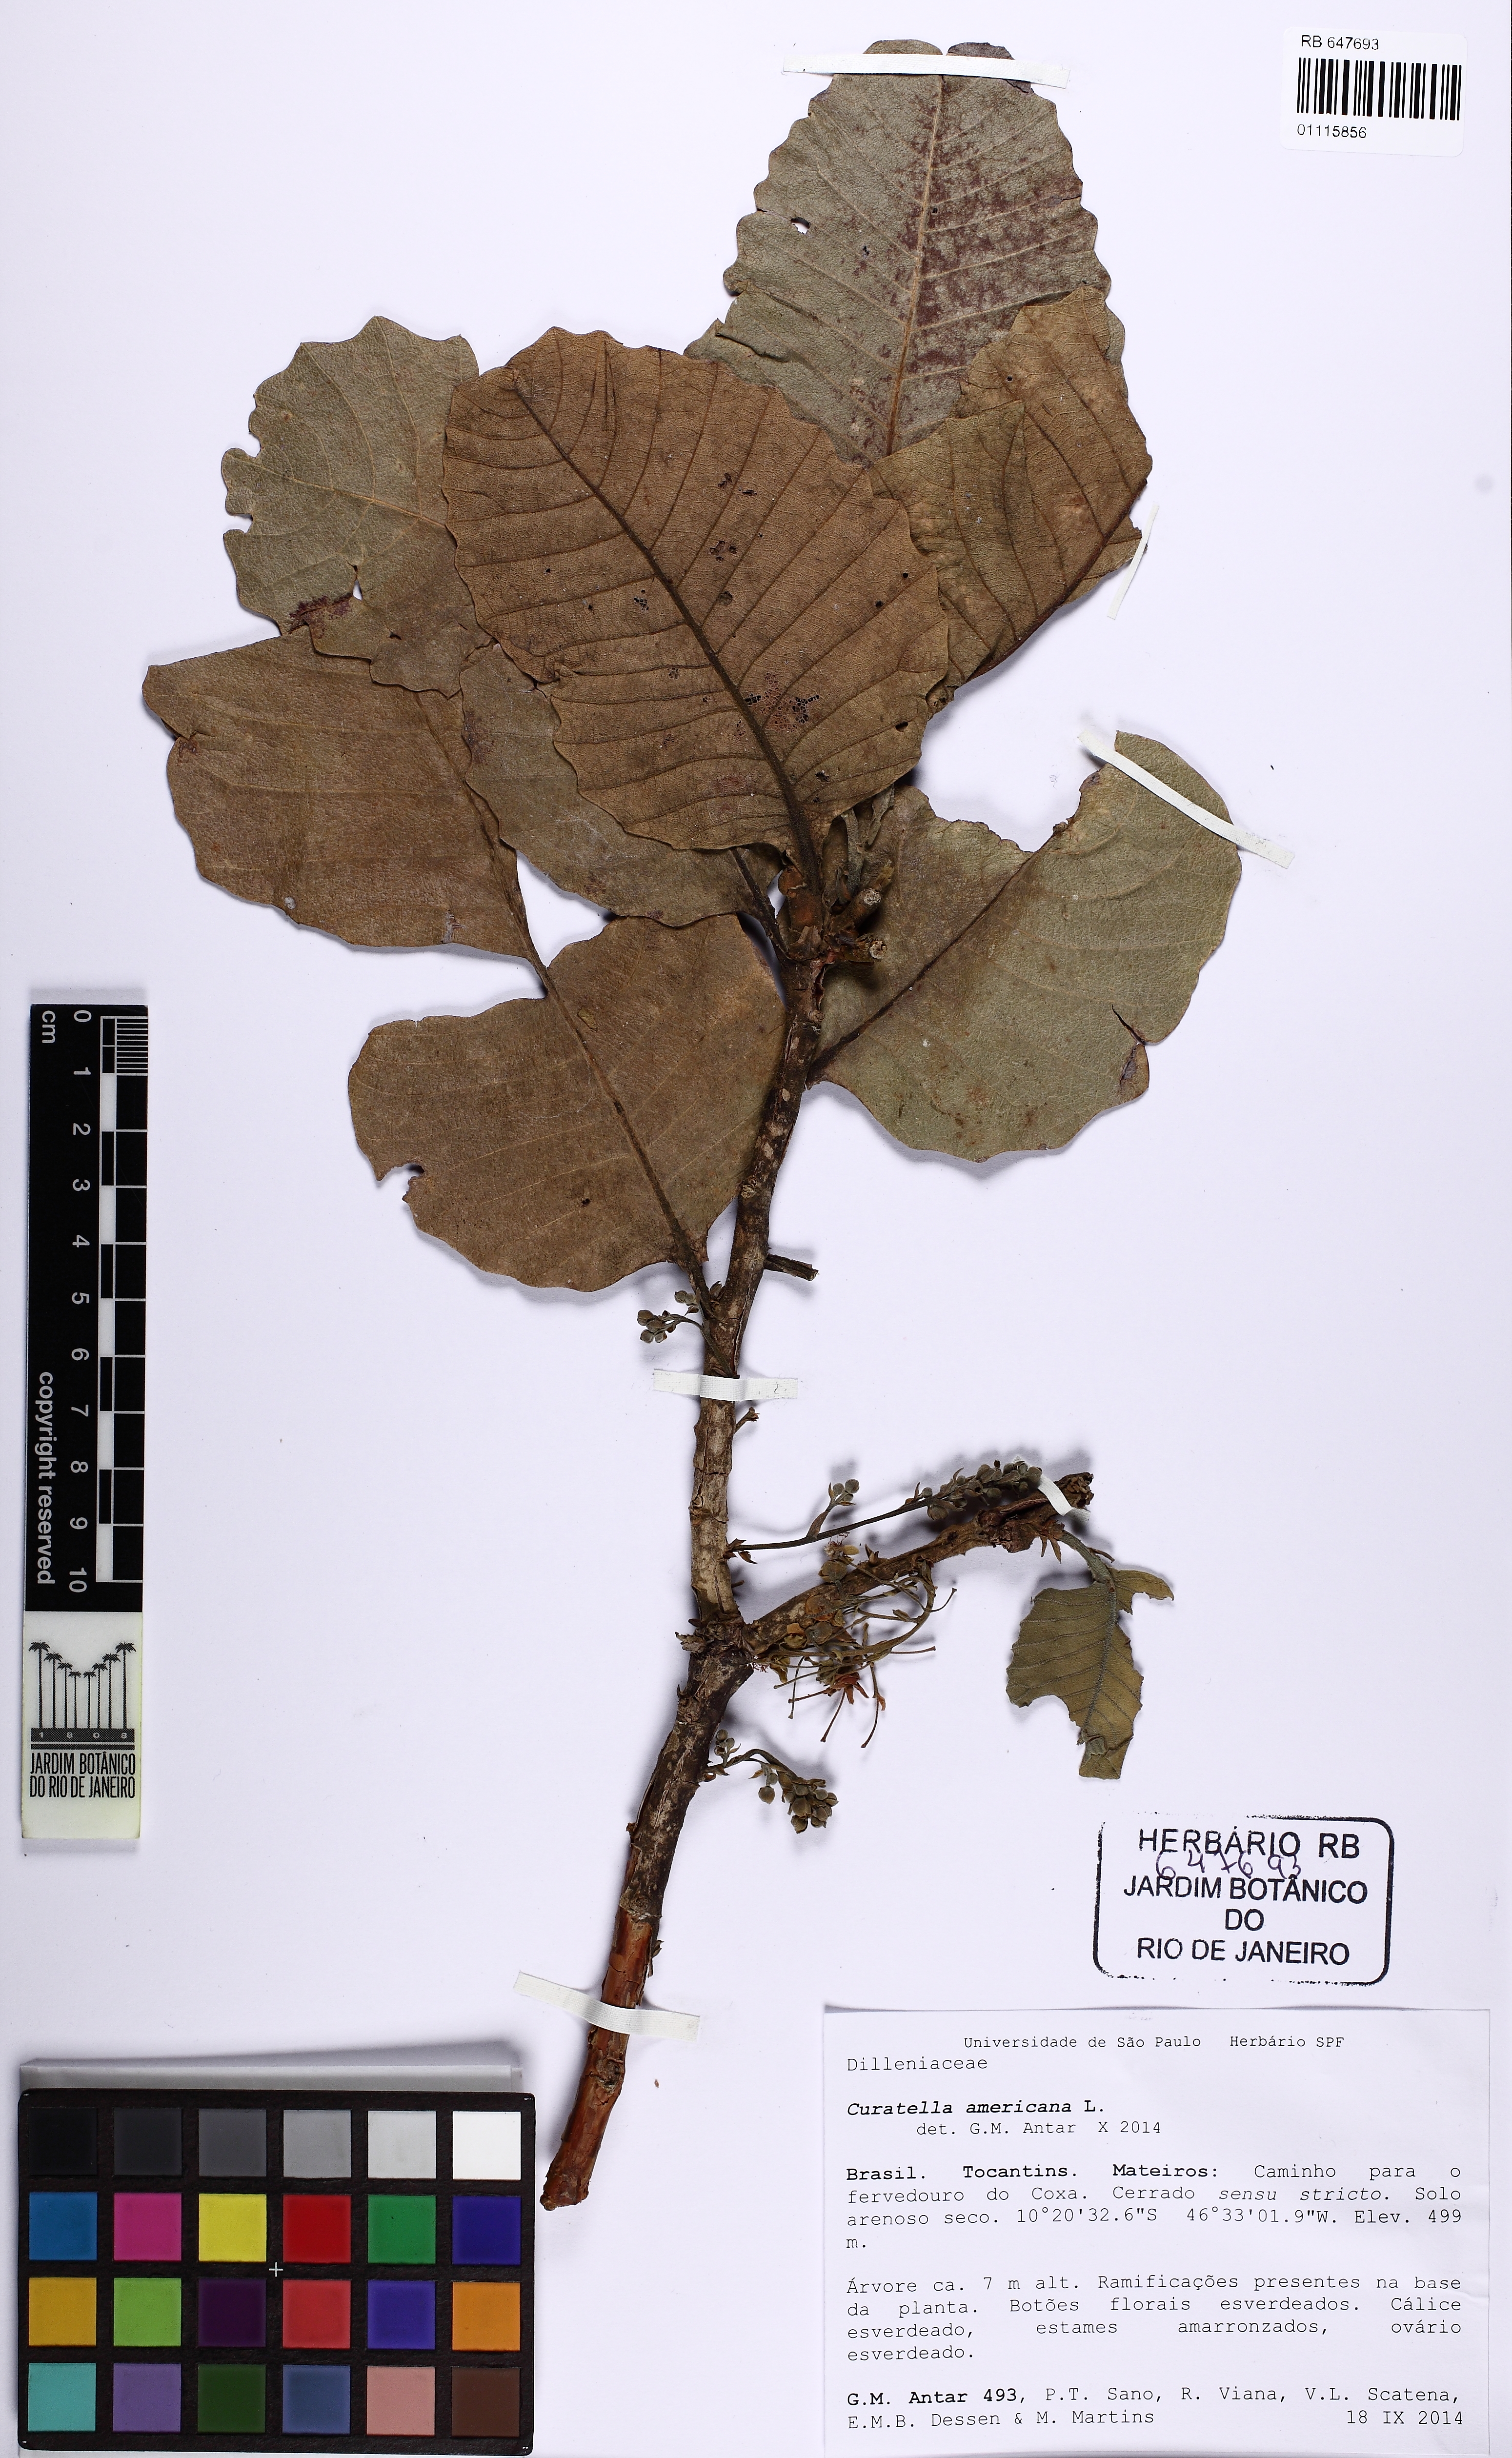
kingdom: Plantae
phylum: Tracheophyta
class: Magnoliopsida
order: Dilleniales
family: Dilleniaceae
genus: Curatella
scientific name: Curatella americana
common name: Sandpaper tree
